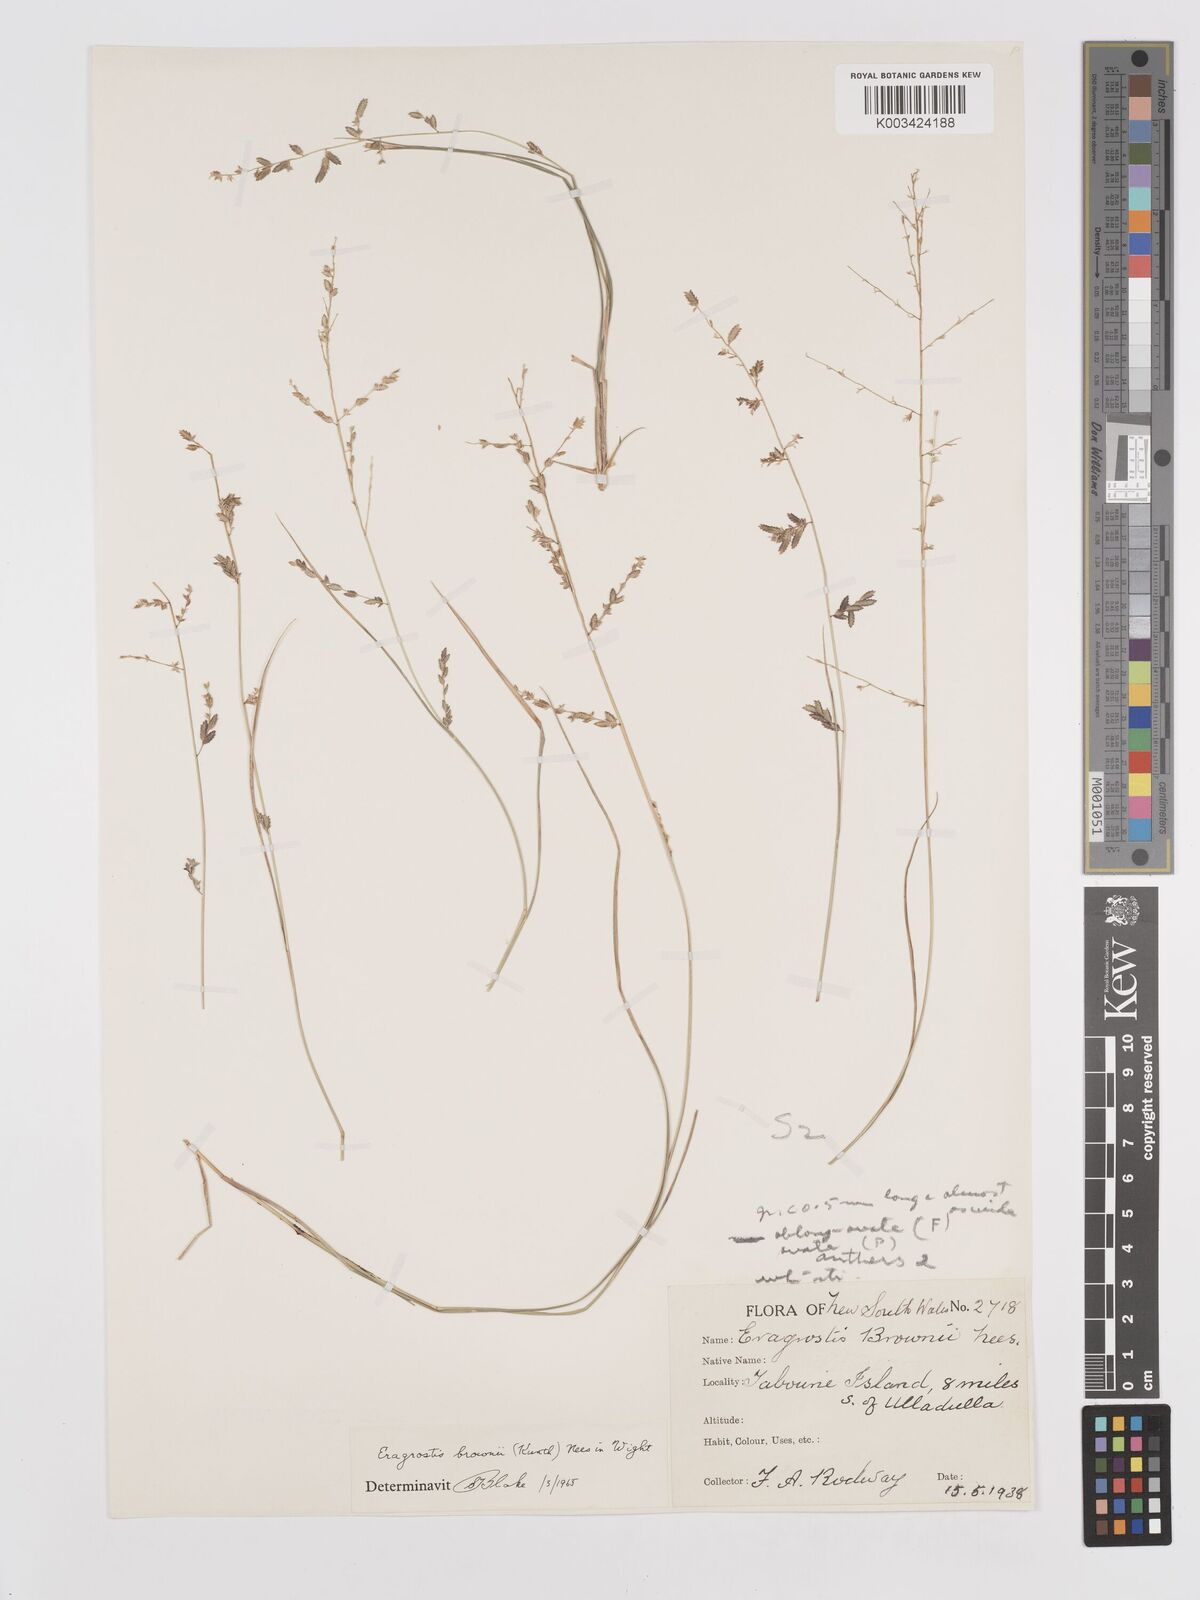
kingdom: Plantae
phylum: Tracheophyta
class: Liliopsida
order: Poales
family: Poaceae
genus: Eragrostis
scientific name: Eragrostis brownii
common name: Lovegrass
